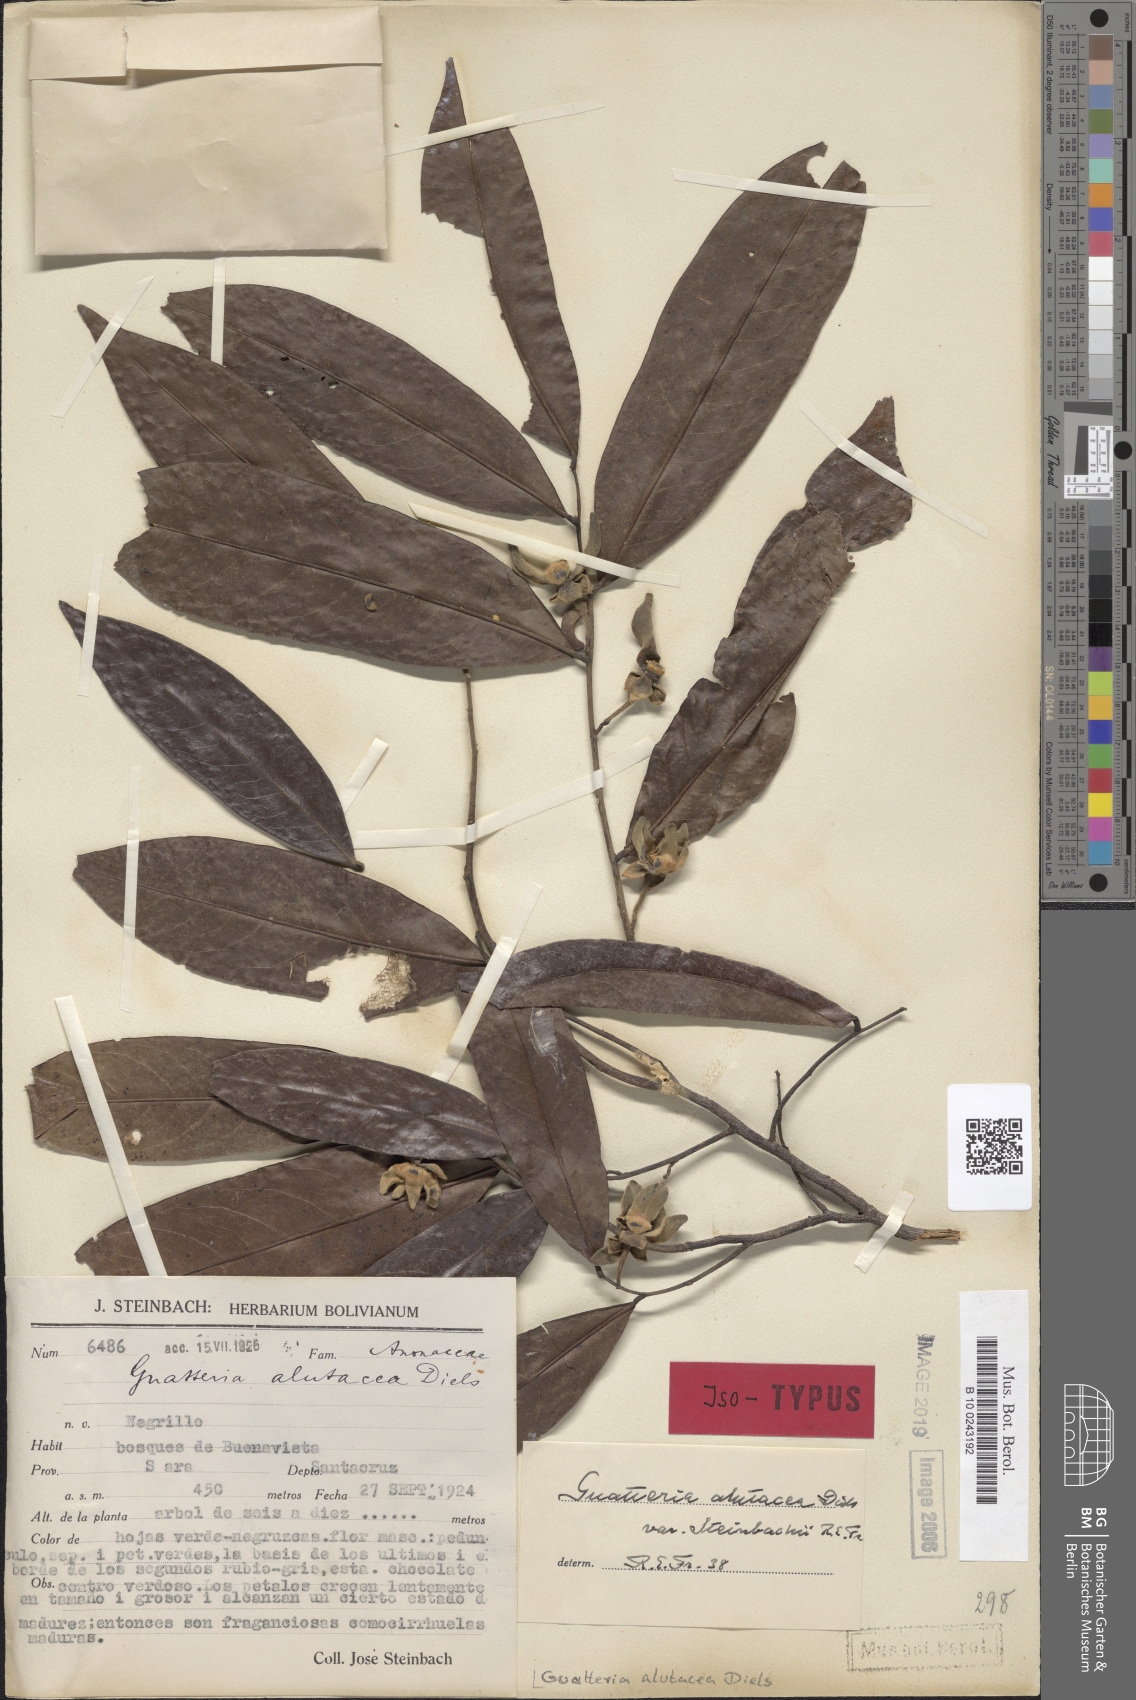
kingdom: Plantae
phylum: Tracheophyta
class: Magnoliopsida
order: Magnoliales
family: Annonaceae
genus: Guatteria
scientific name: Guatteria alutacea
